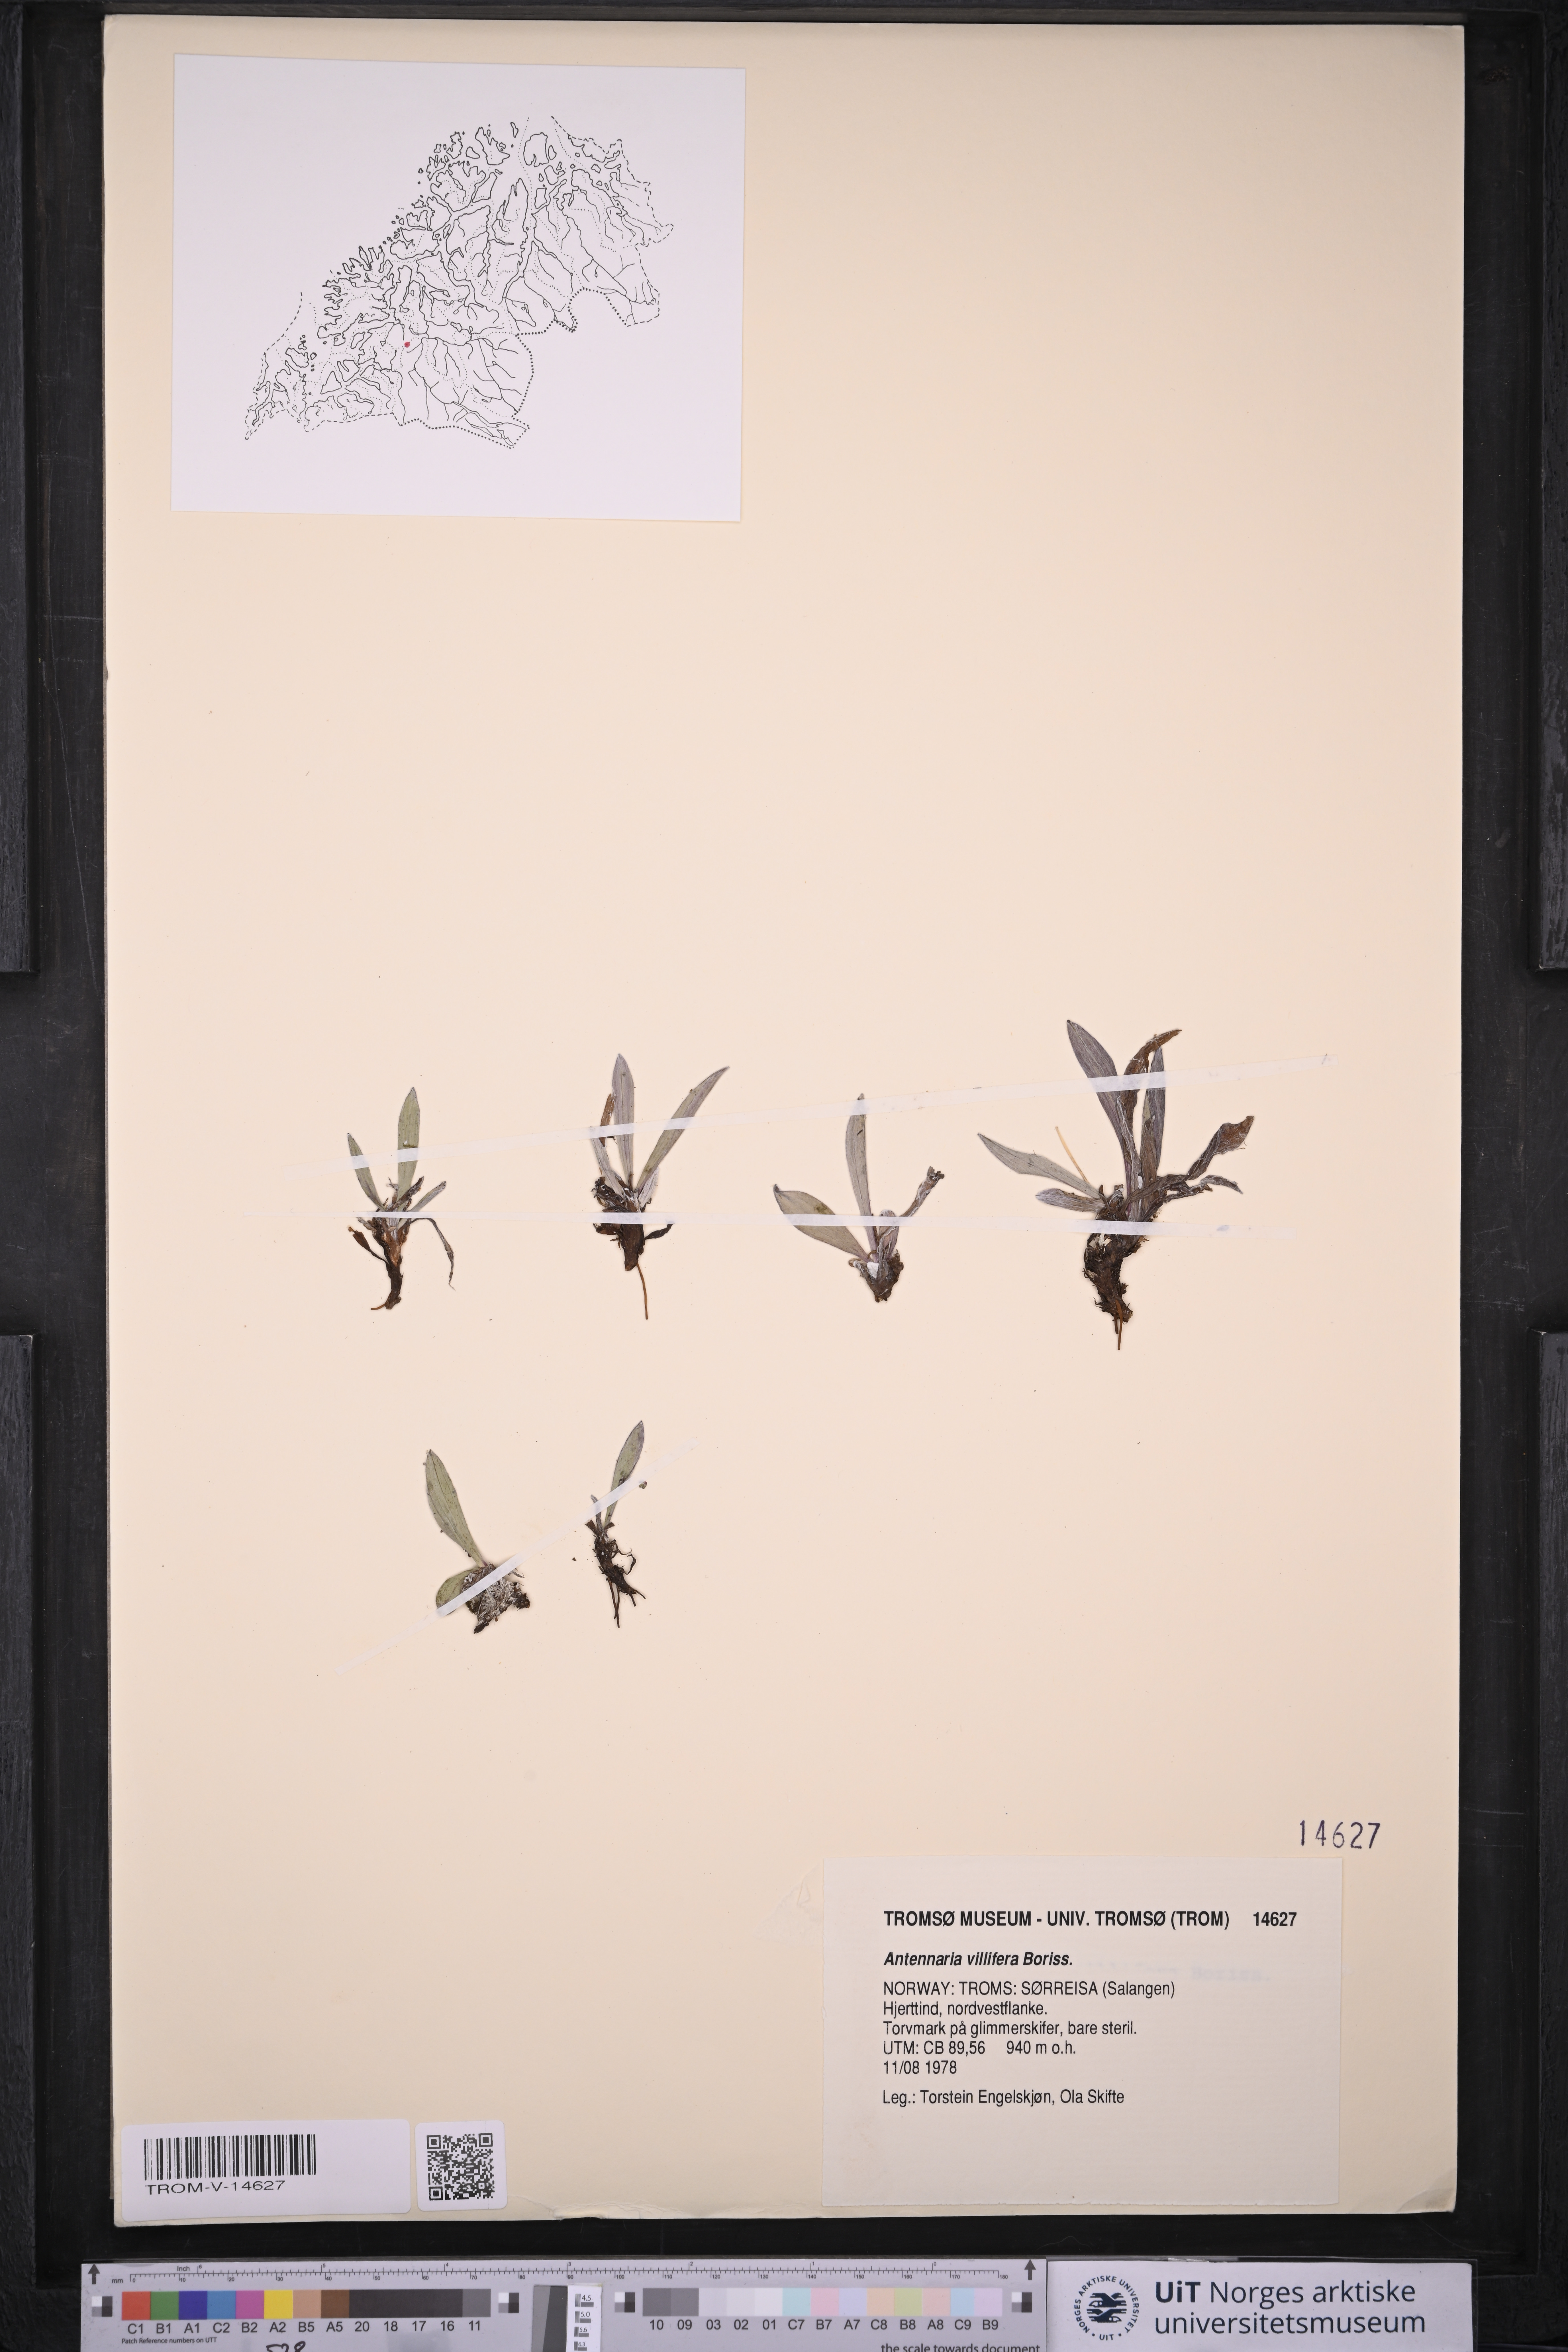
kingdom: Plantae
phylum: Tracheophyta
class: Magnoliopsida
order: Asterales
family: Asteraceae
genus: Antennaria
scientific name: Antennaria lanata
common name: Woolly pussytoes
